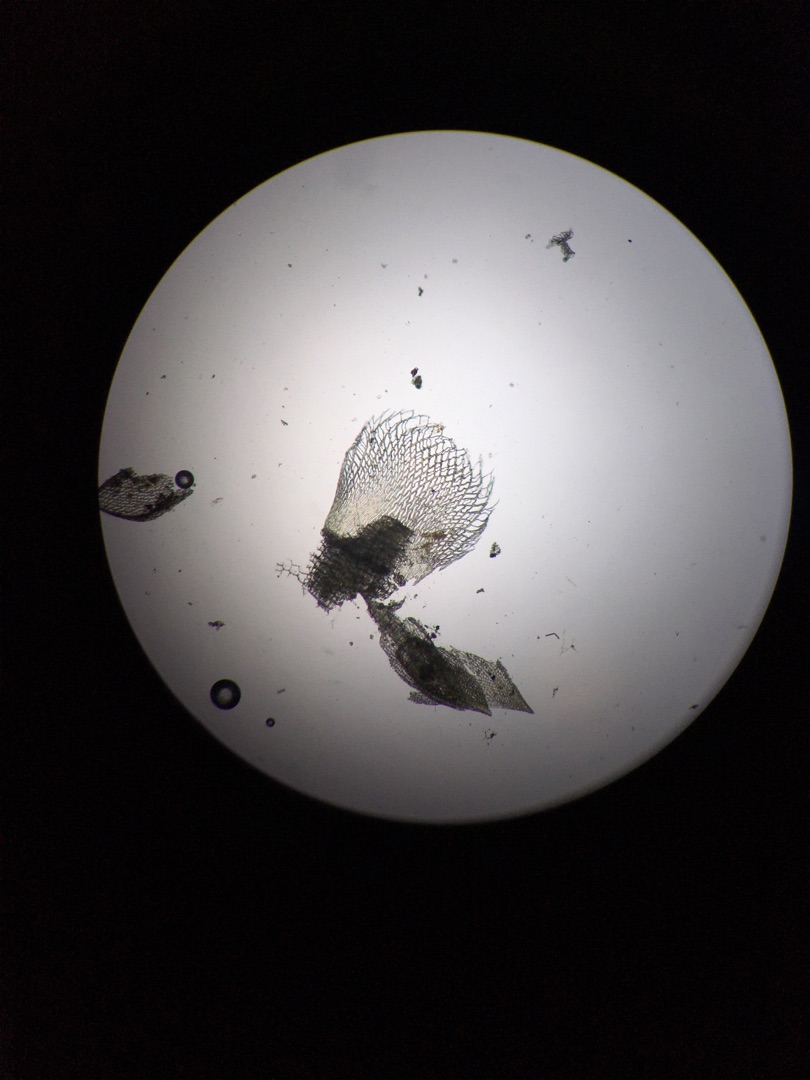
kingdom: Plantae
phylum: Bryophyta
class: Sphagnopsida
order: Sphagnales
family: Sphagnaceae
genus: Sphagnum
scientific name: Sphagnum fimbriatum
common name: Frynset tørvemos
